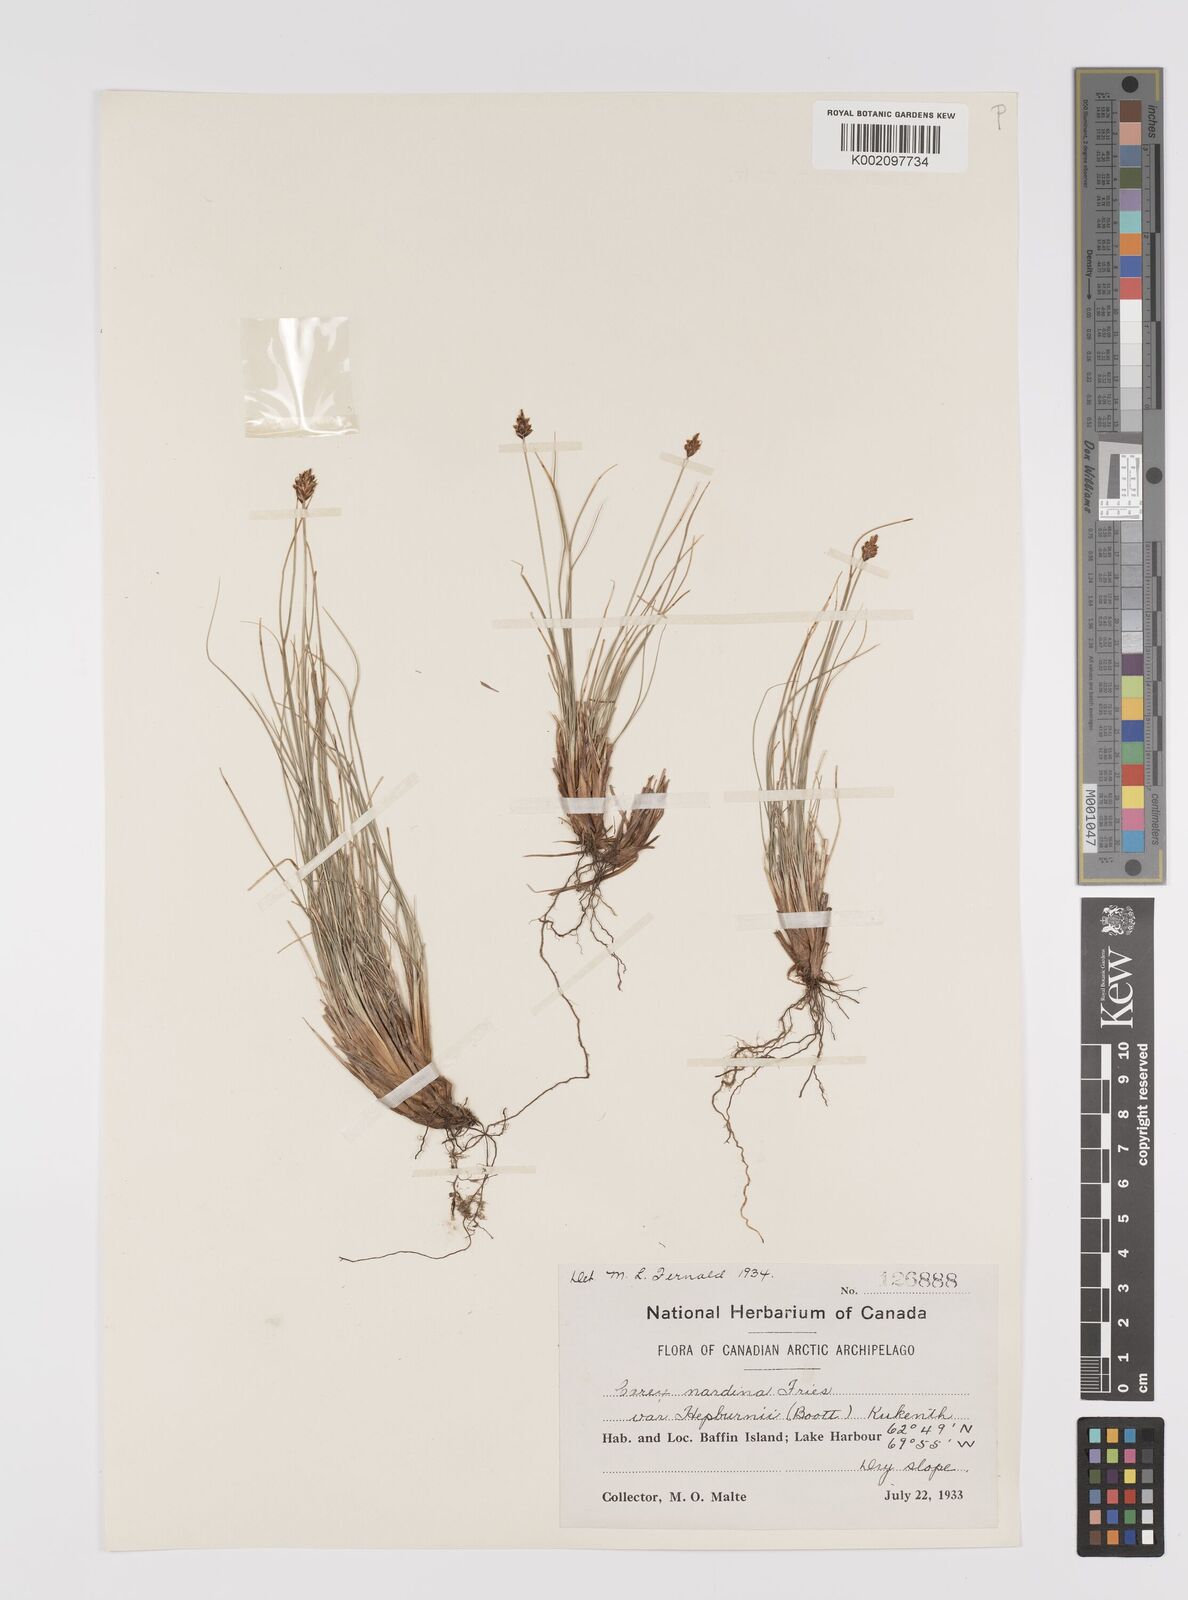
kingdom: Plantae
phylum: Tracheophyta
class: Liliopsida
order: Poales
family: Cyperaceae
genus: Carex
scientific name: Carex nardina
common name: Nard sedge
